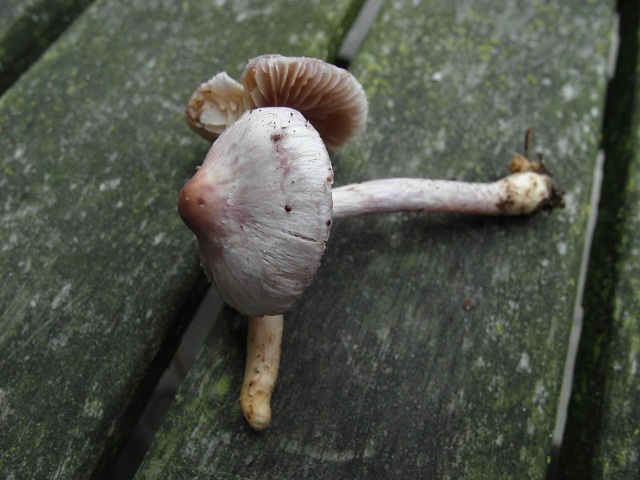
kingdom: Fungi
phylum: Basidiomycota
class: Agaricomycetes
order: Agaricales
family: Inocybaceae
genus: Inocybe
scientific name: Inocybe geophylla
